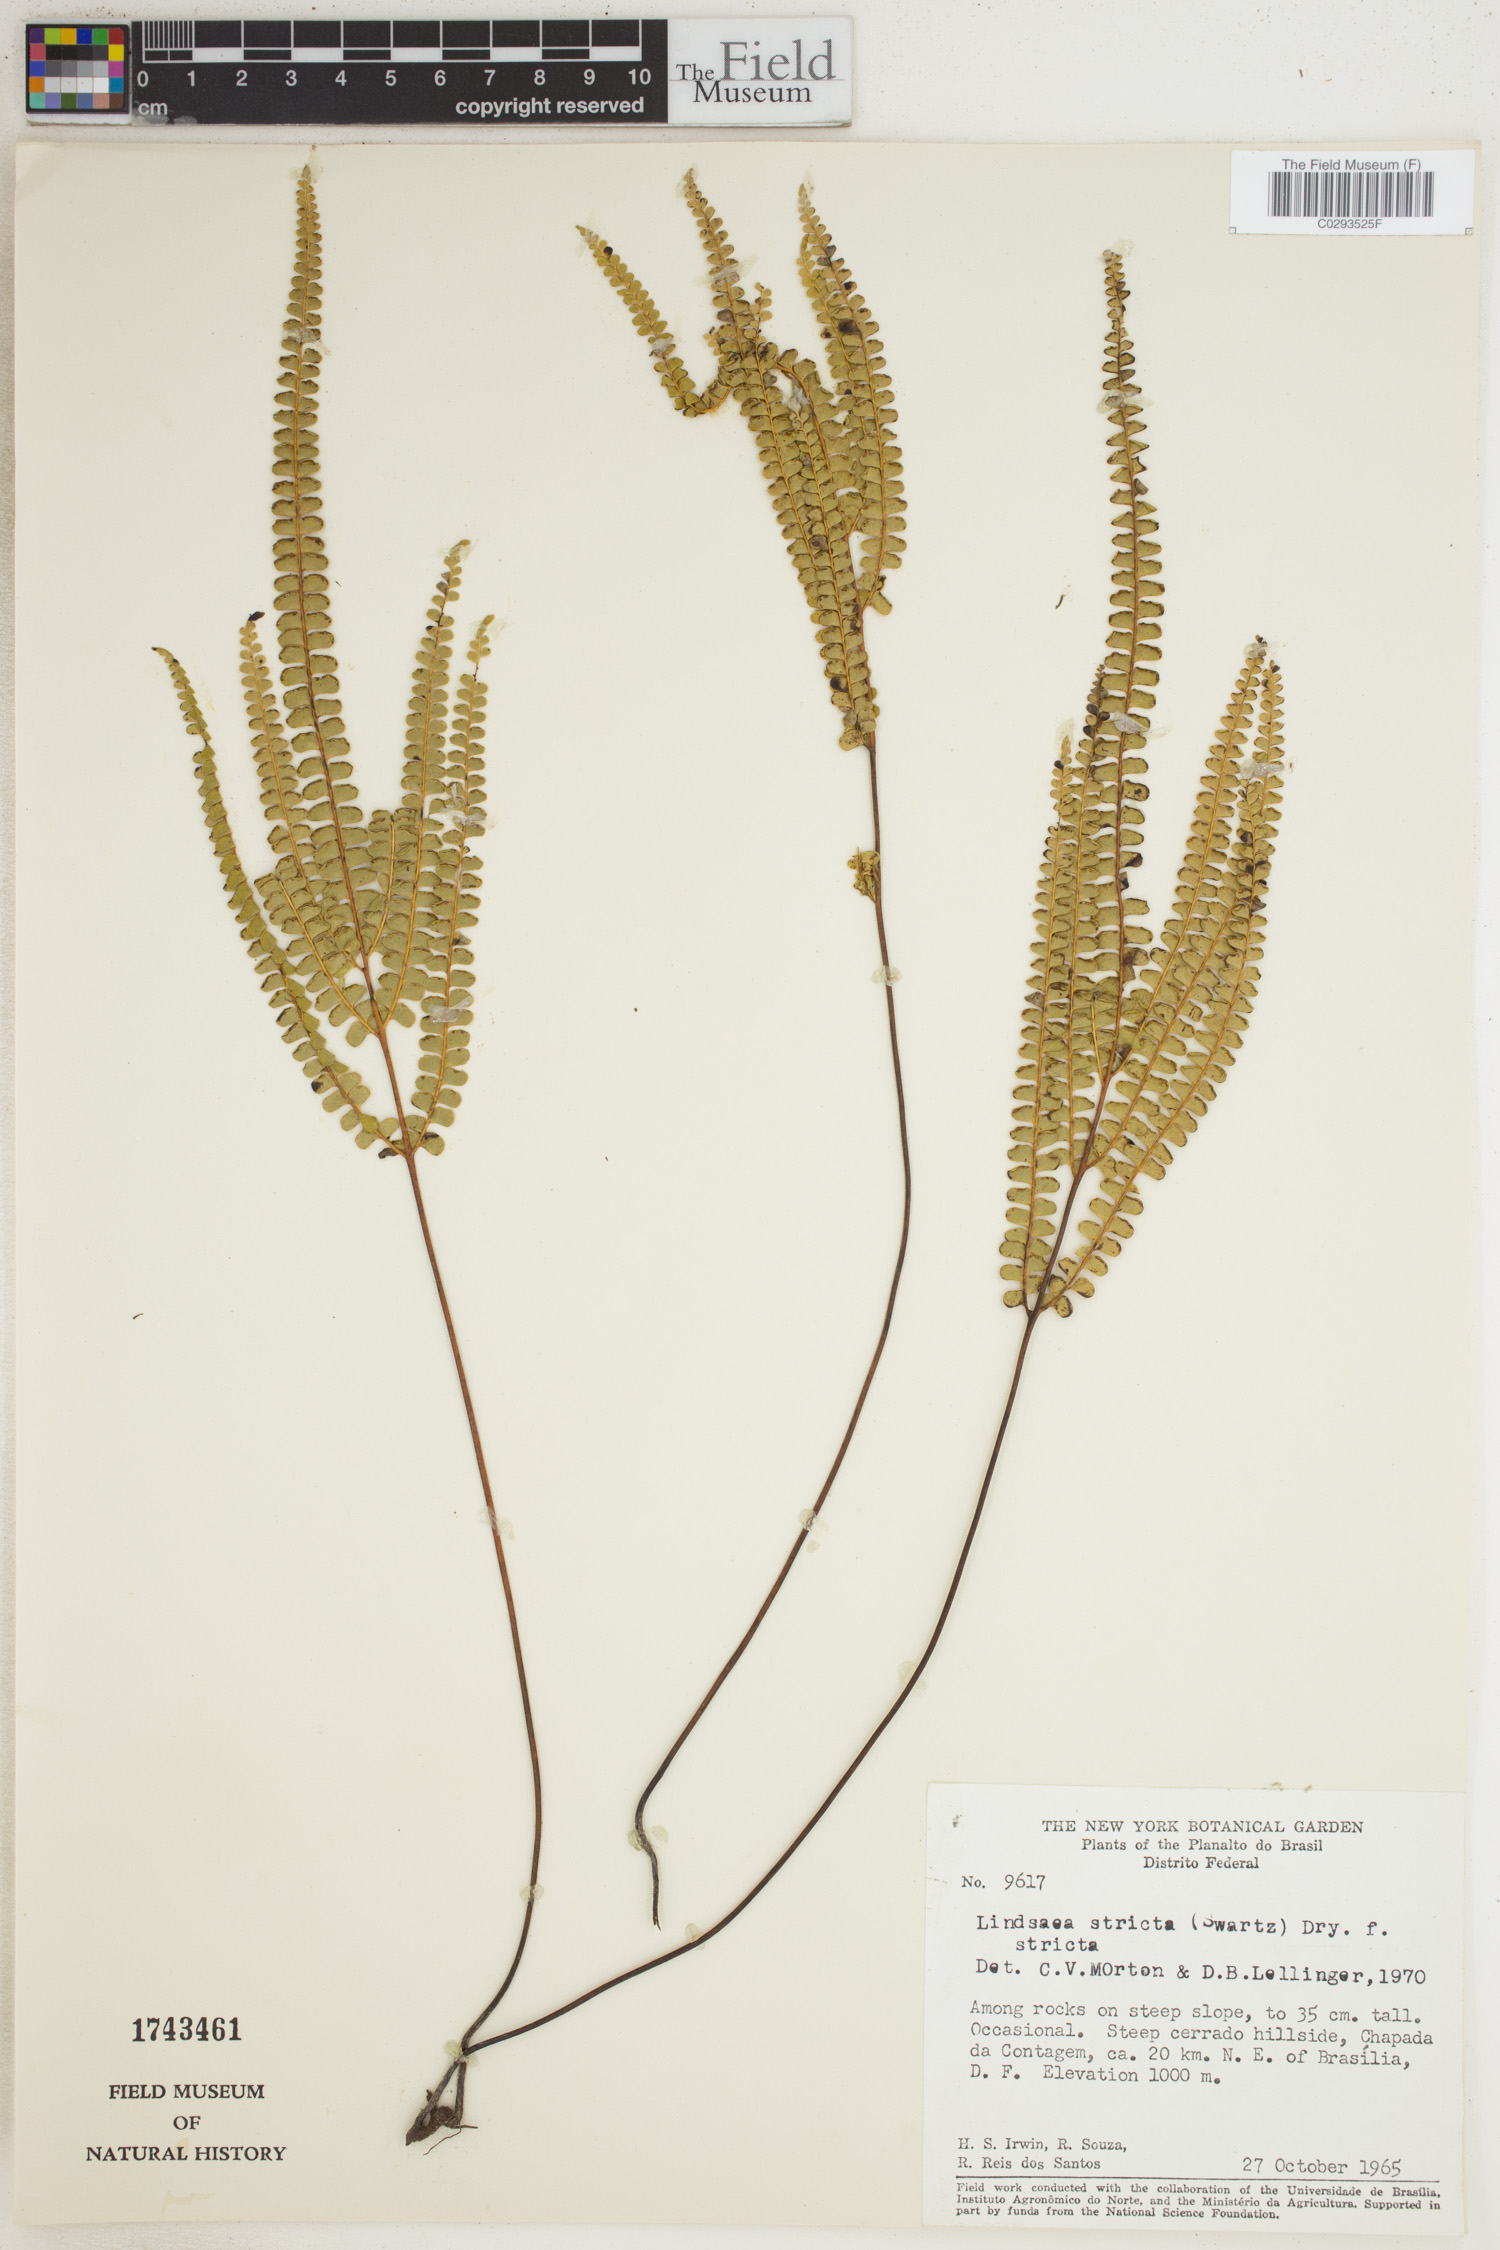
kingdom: Plantae
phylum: Tracheophyta
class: Polypodiopsida
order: Polypodiales
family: Lindsaeaceae
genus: Lindsaea
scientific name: Lindsaea stricta
